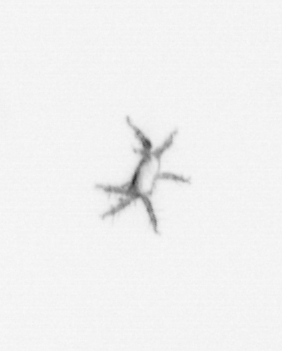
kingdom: Animalia
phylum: Cnidaria
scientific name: Cnidaria
